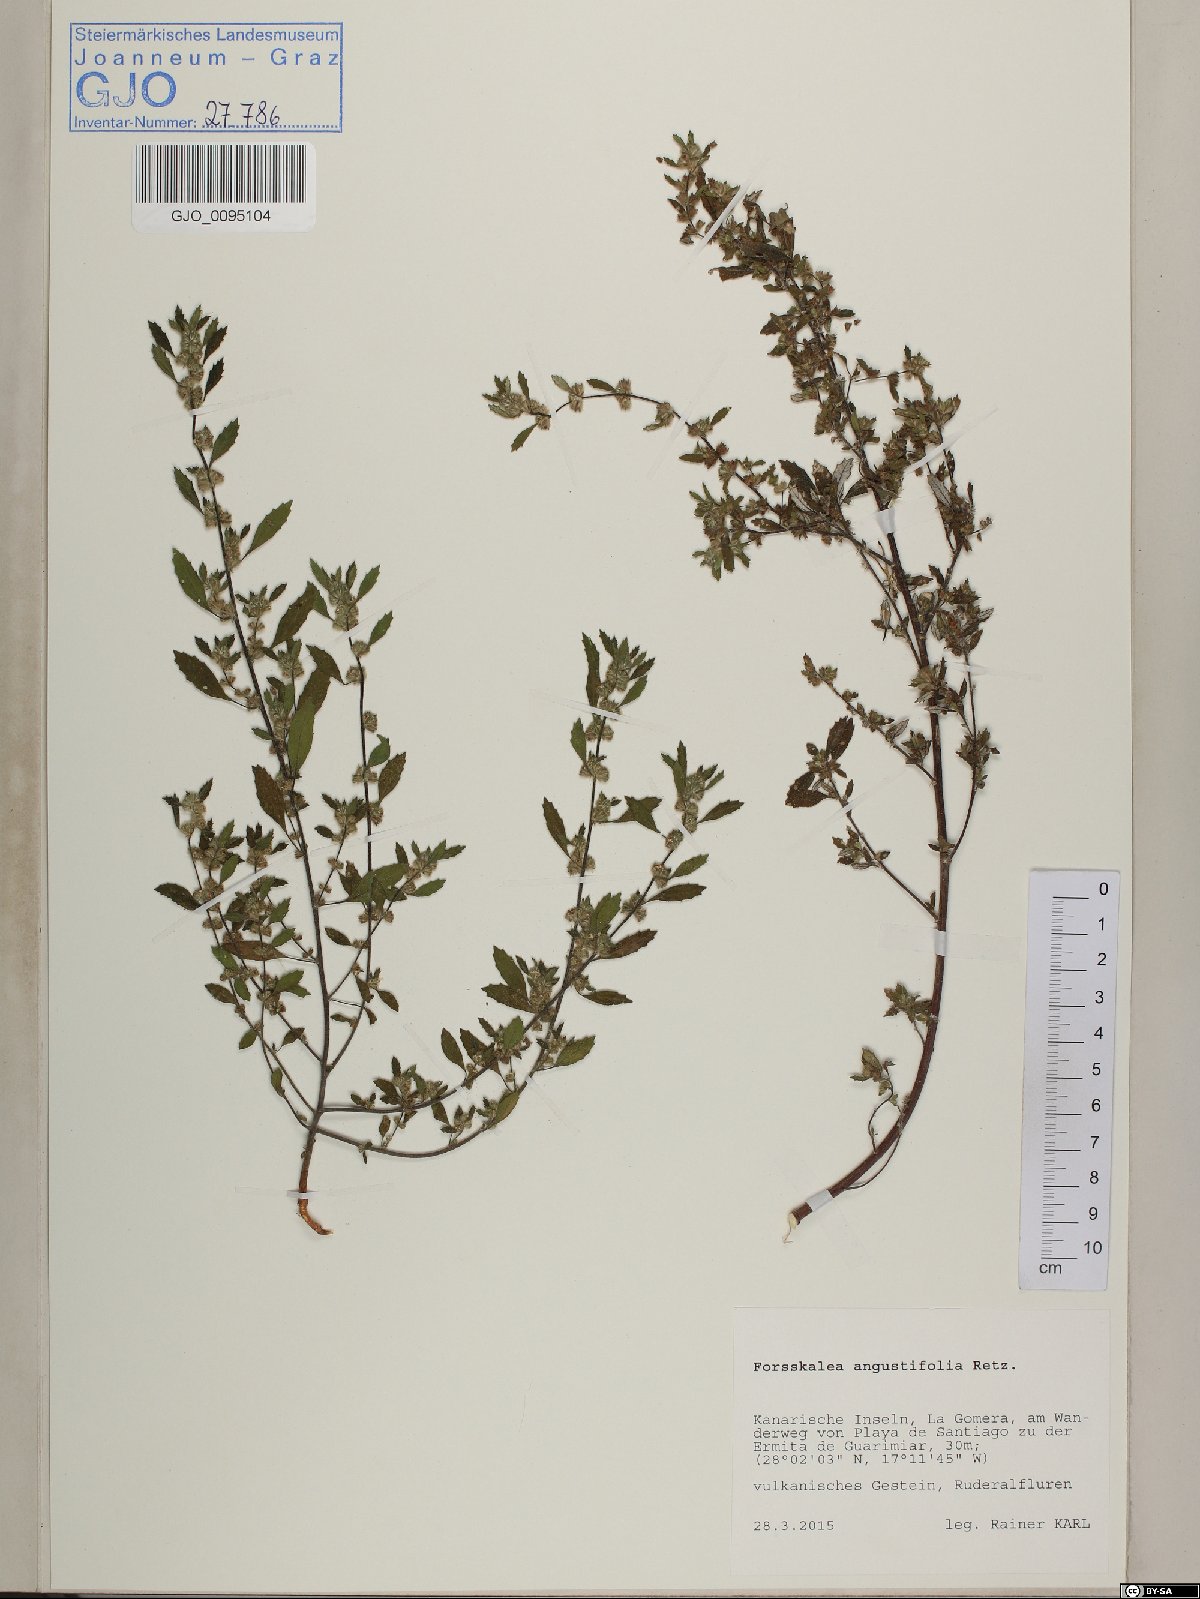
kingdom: Plantae
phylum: Tracheophyta
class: Magnoliopsida
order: Rosales
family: Urticaceae
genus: Forsskaolea
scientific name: Forsskaolea angustifolia
